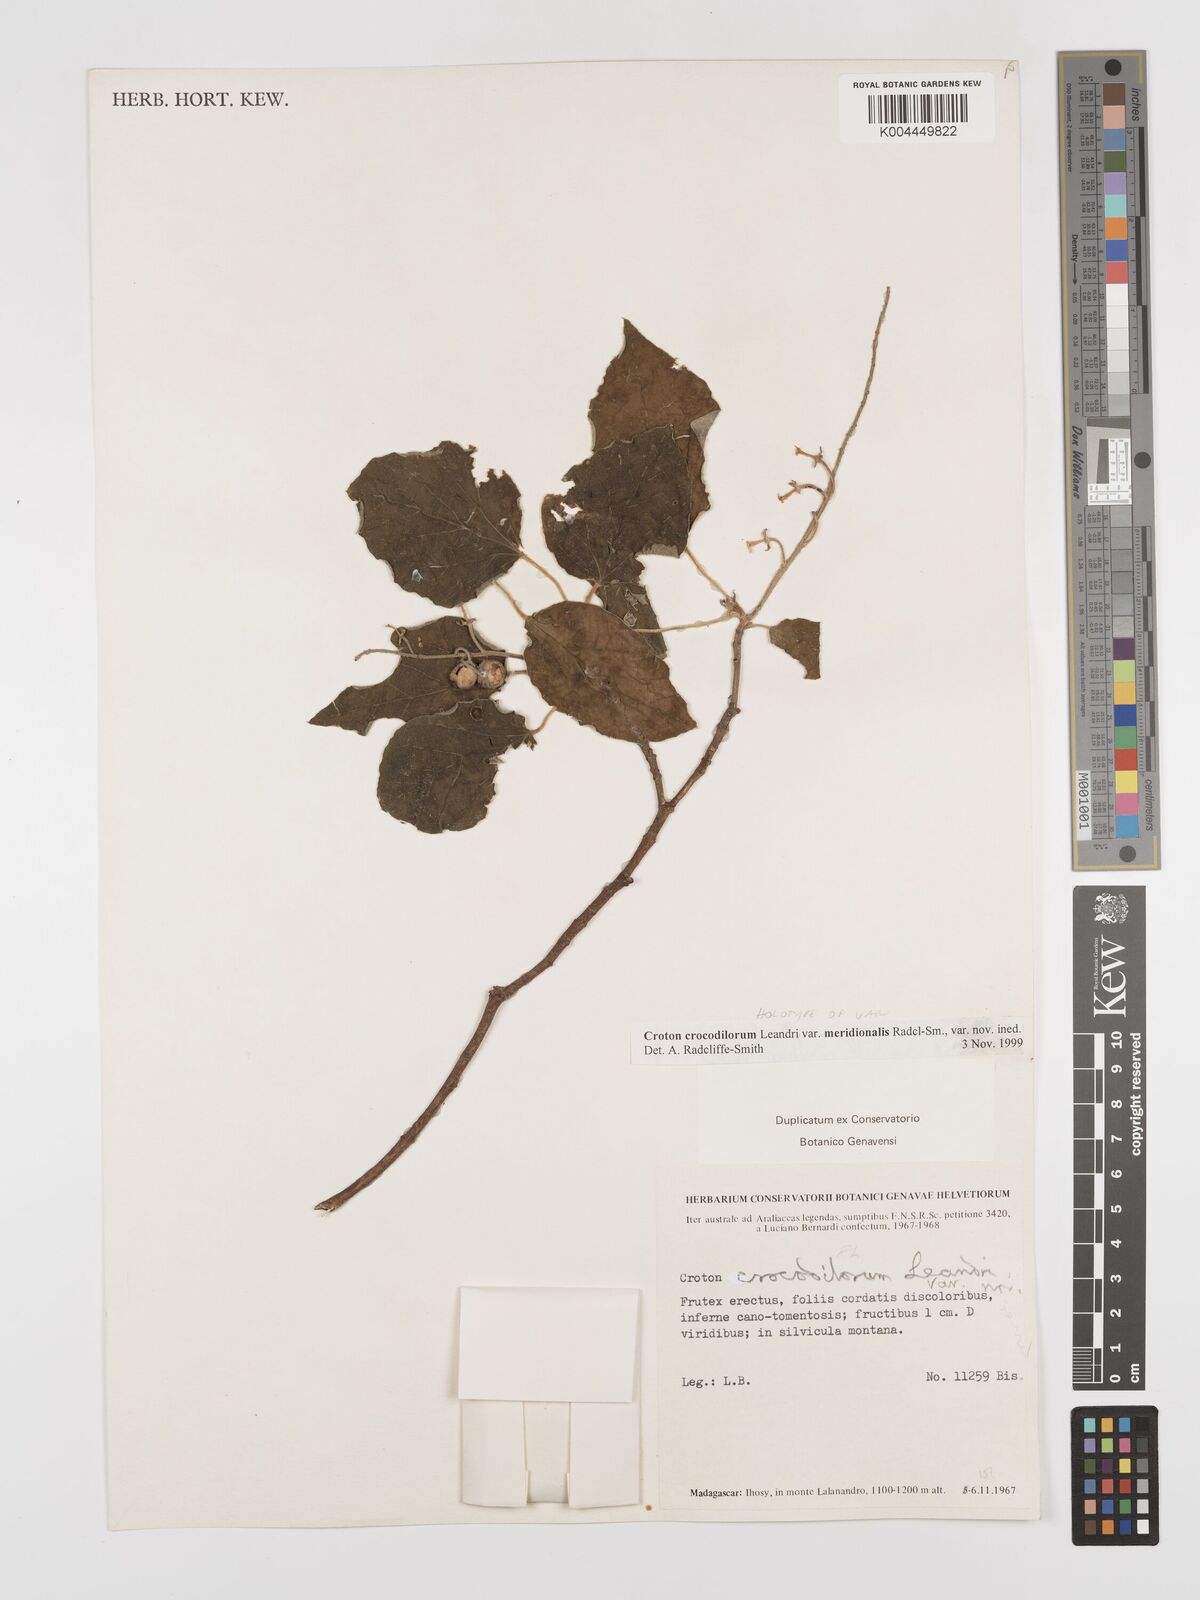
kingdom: Plantae
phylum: Tracheophyta
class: Magnoliopsida
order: Malpighiales
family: Euphorbiaceae
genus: Croton
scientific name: Croton crocodilorum
